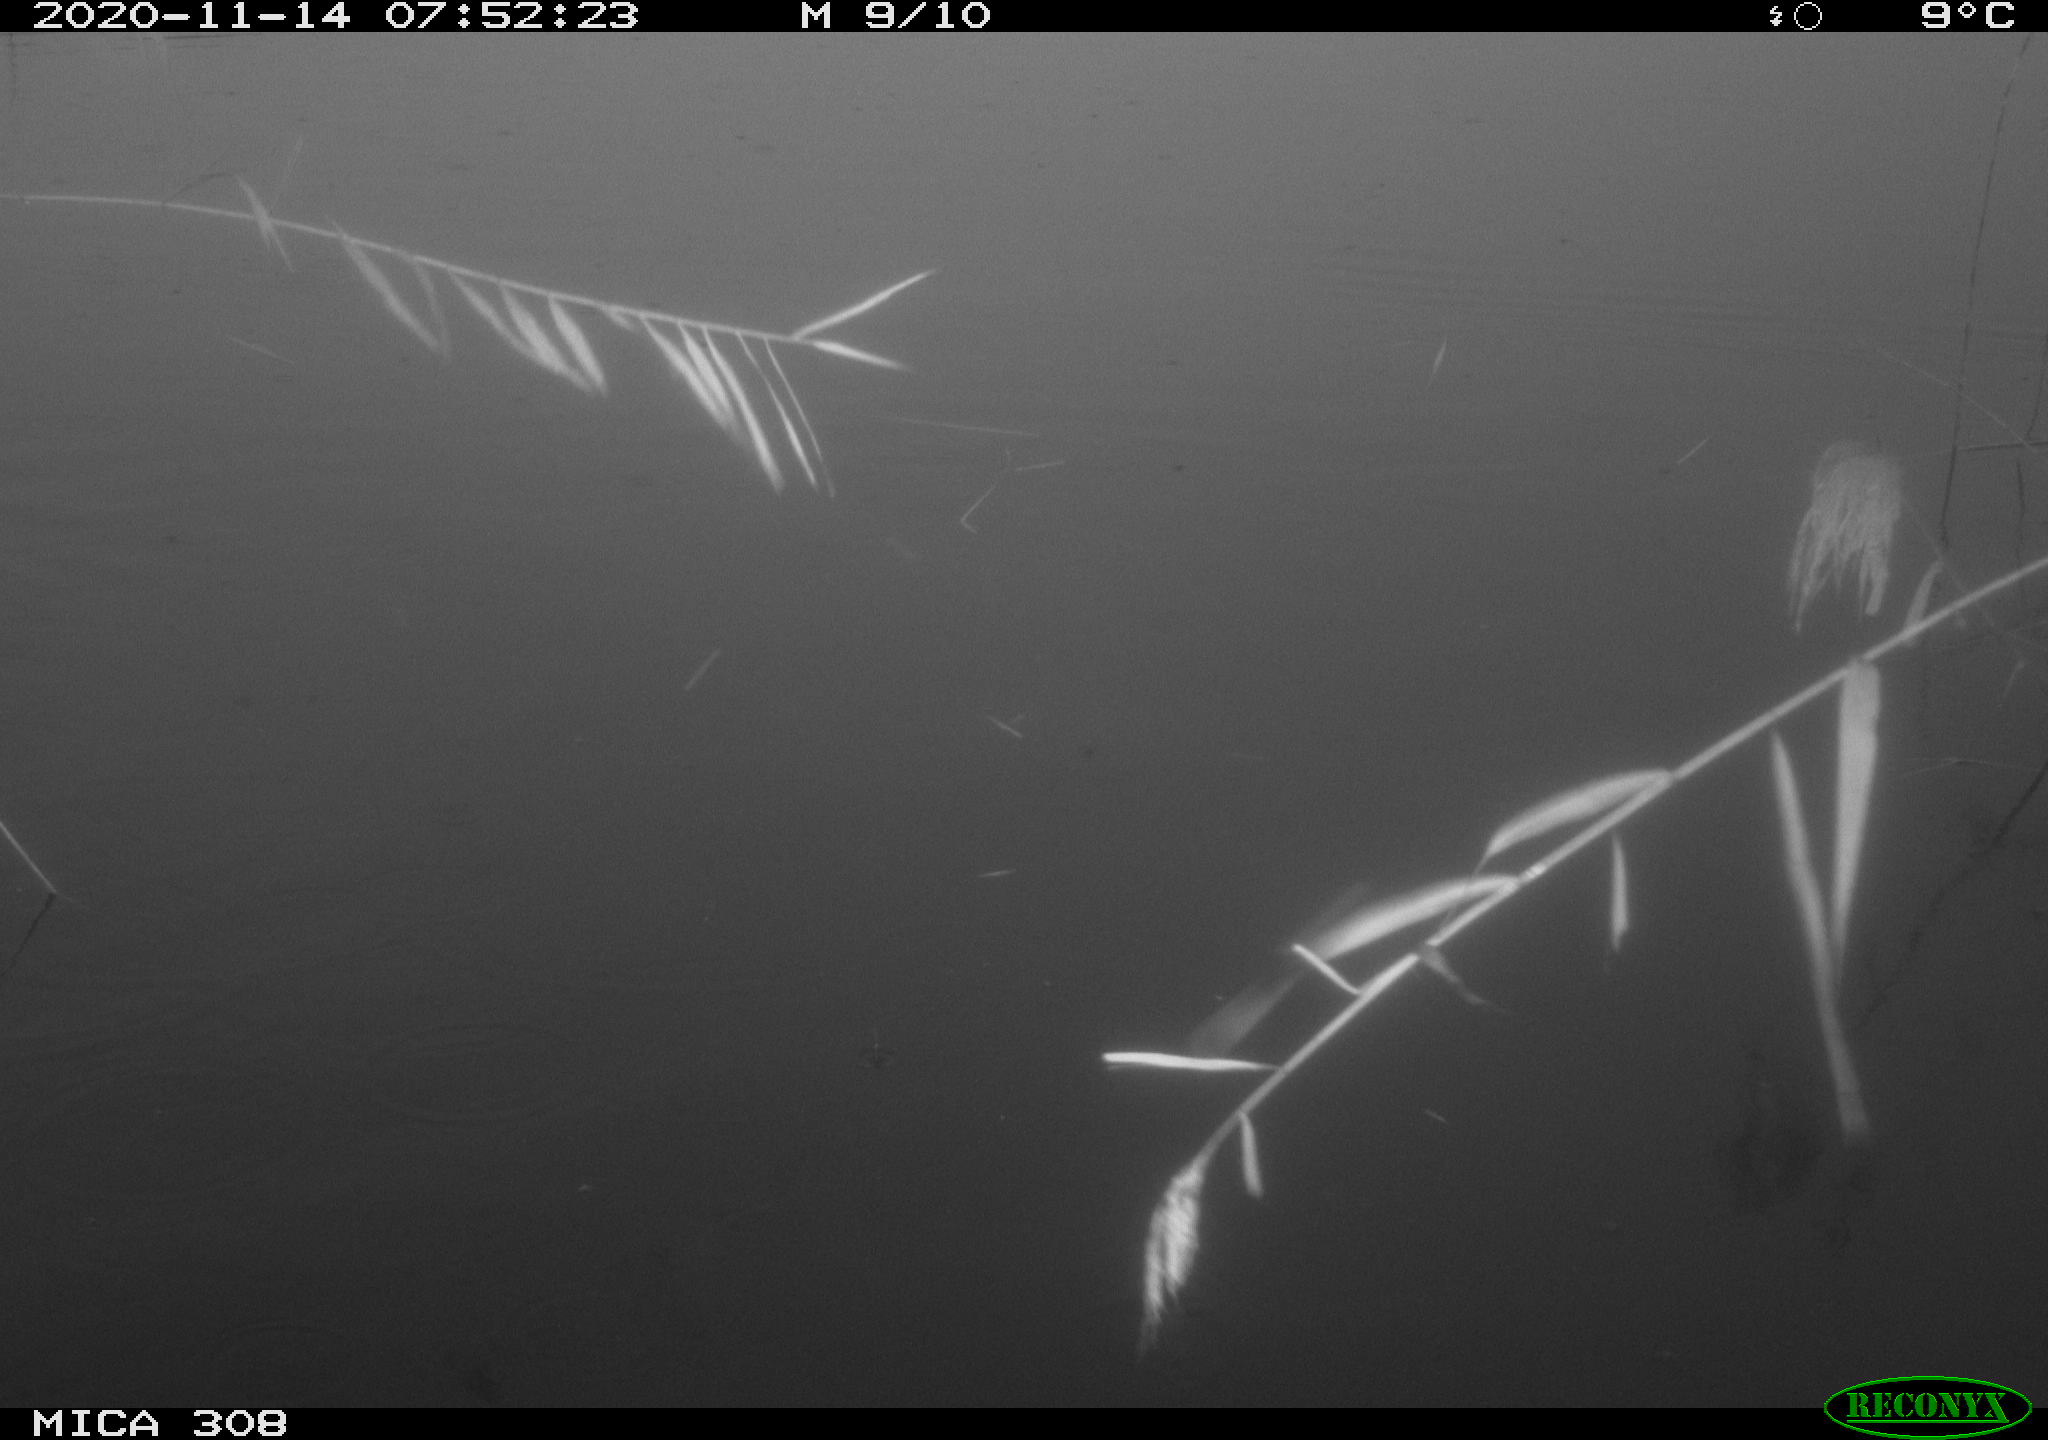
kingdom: Animalia
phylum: Chordata
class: Aves
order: Gruiformes
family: Rallidae
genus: Fulica
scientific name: Fulica atra
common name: Eurasian coot
